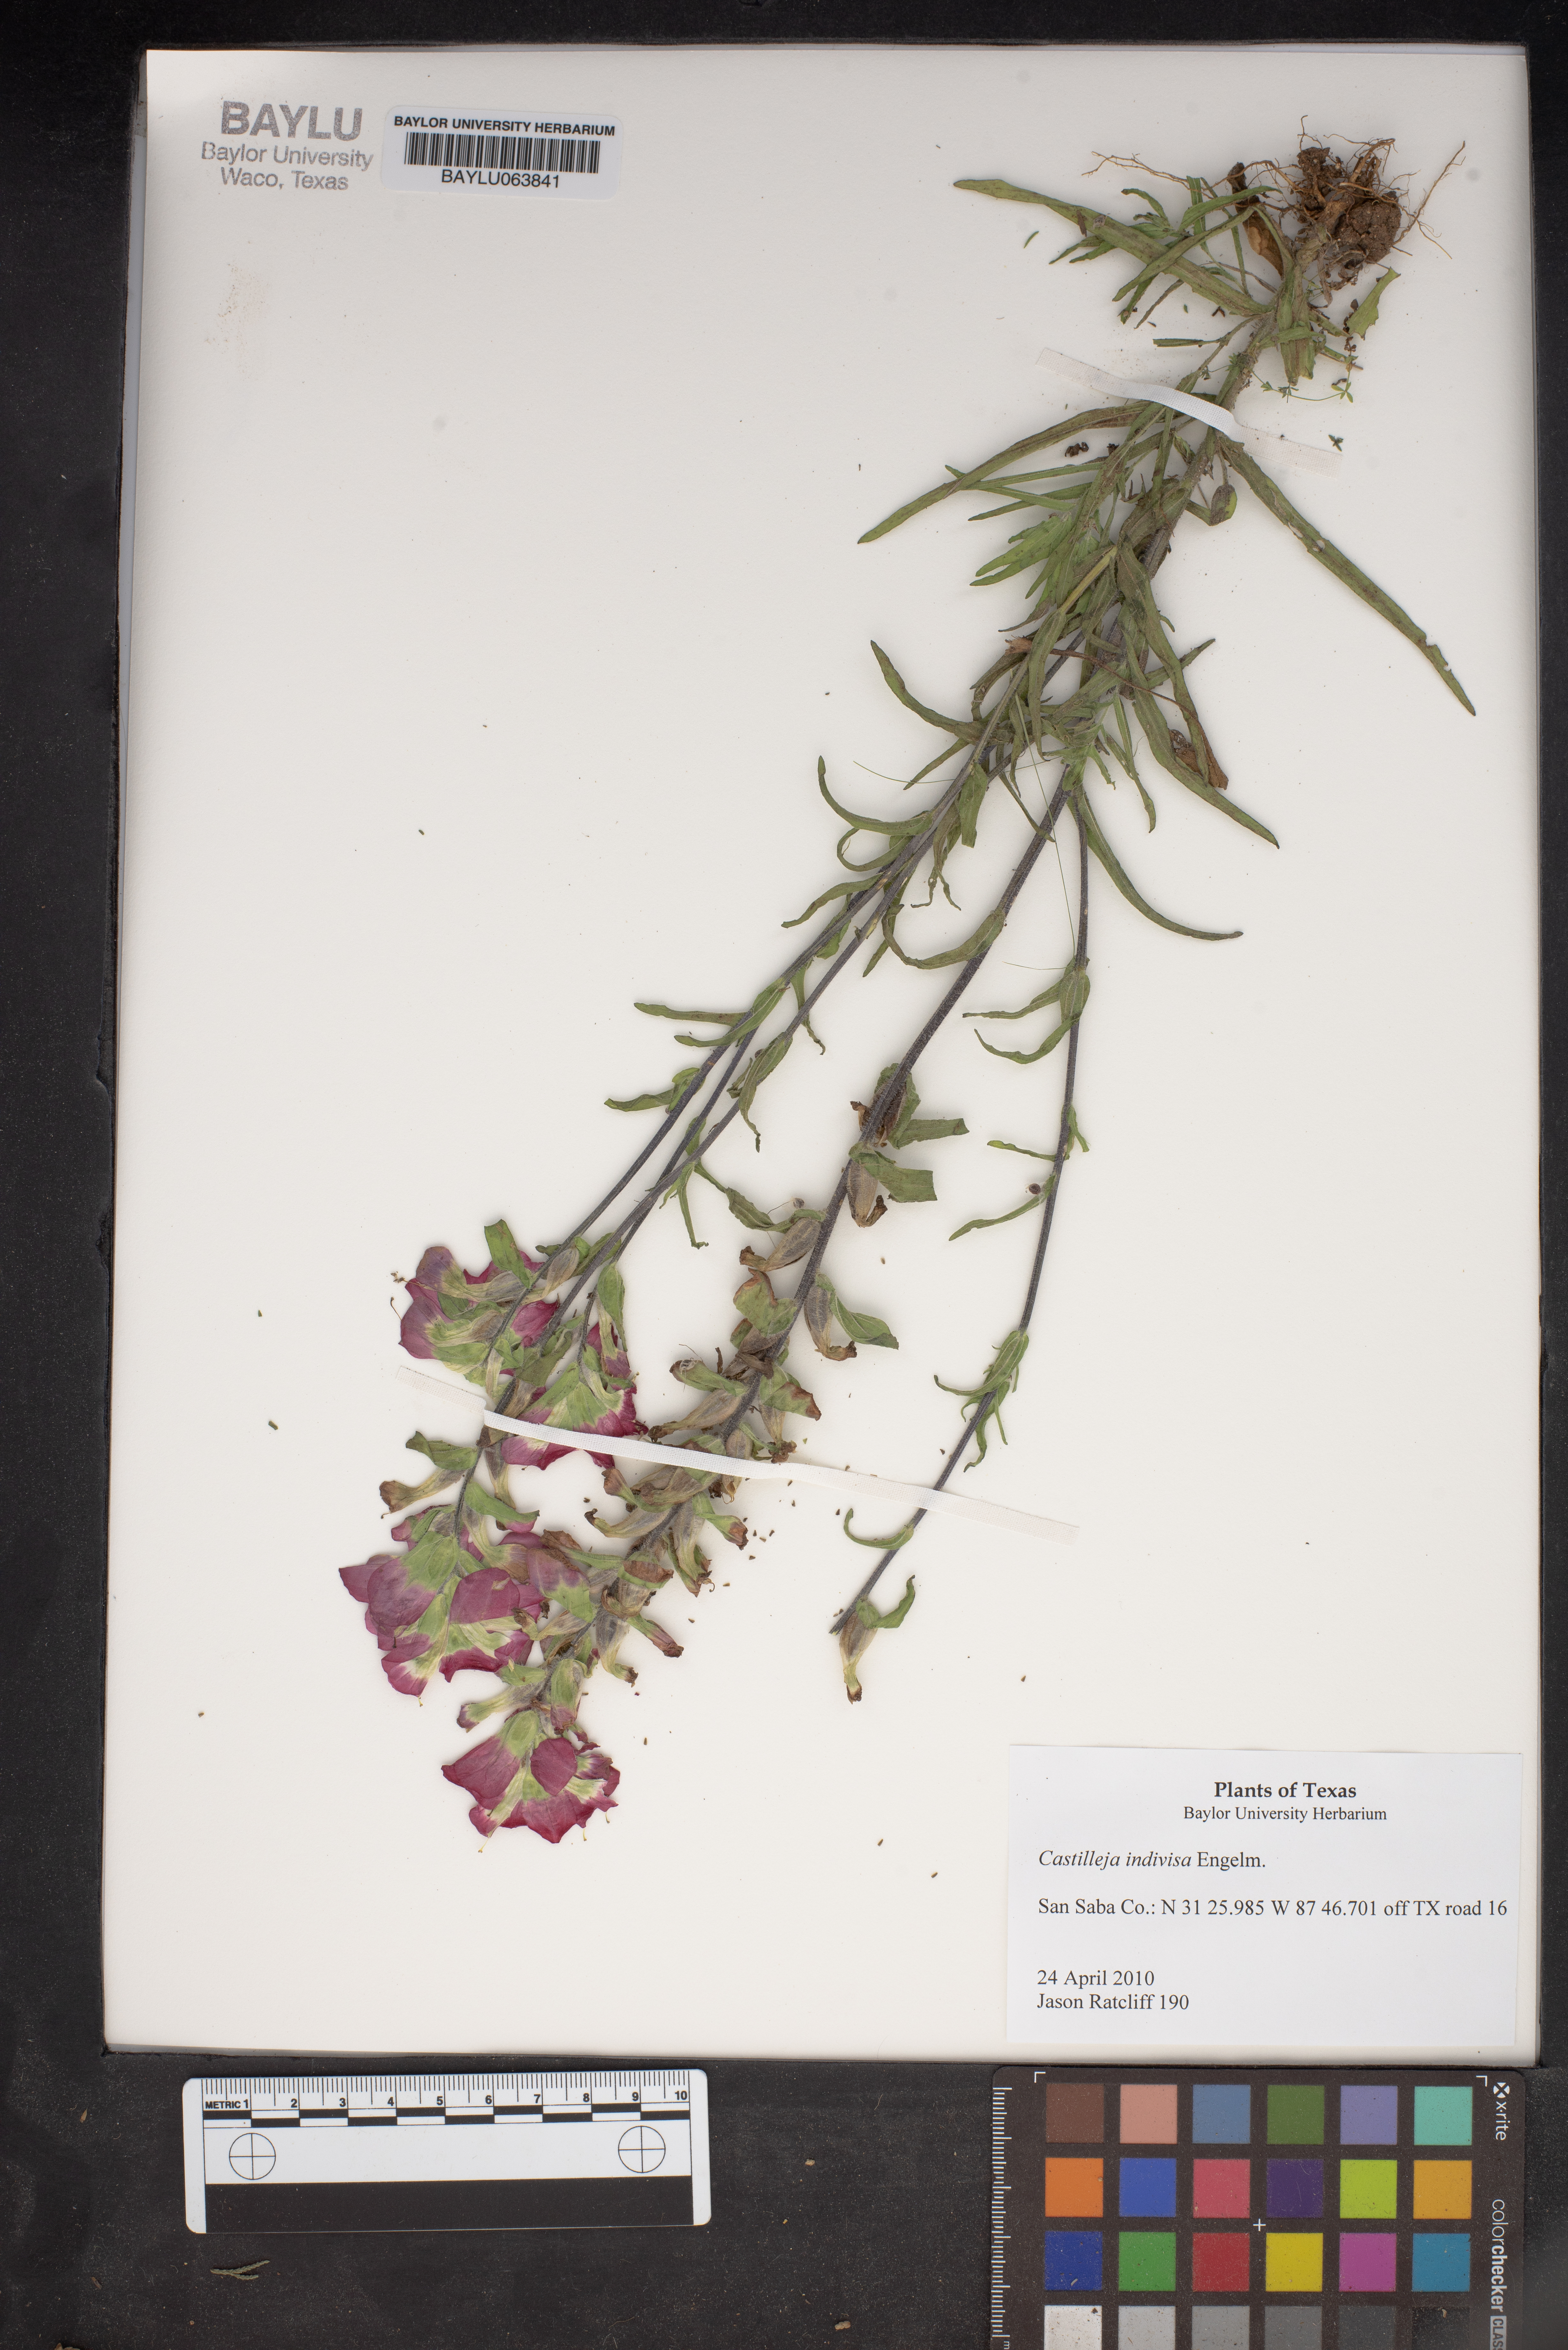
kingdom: Plantae
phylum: Tracheophyta
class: Magnoliopsida
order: Lamiales
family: Orobanchaceae
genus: Castilleja
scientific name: Castilleja indivisa
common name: Texas paintbrush
